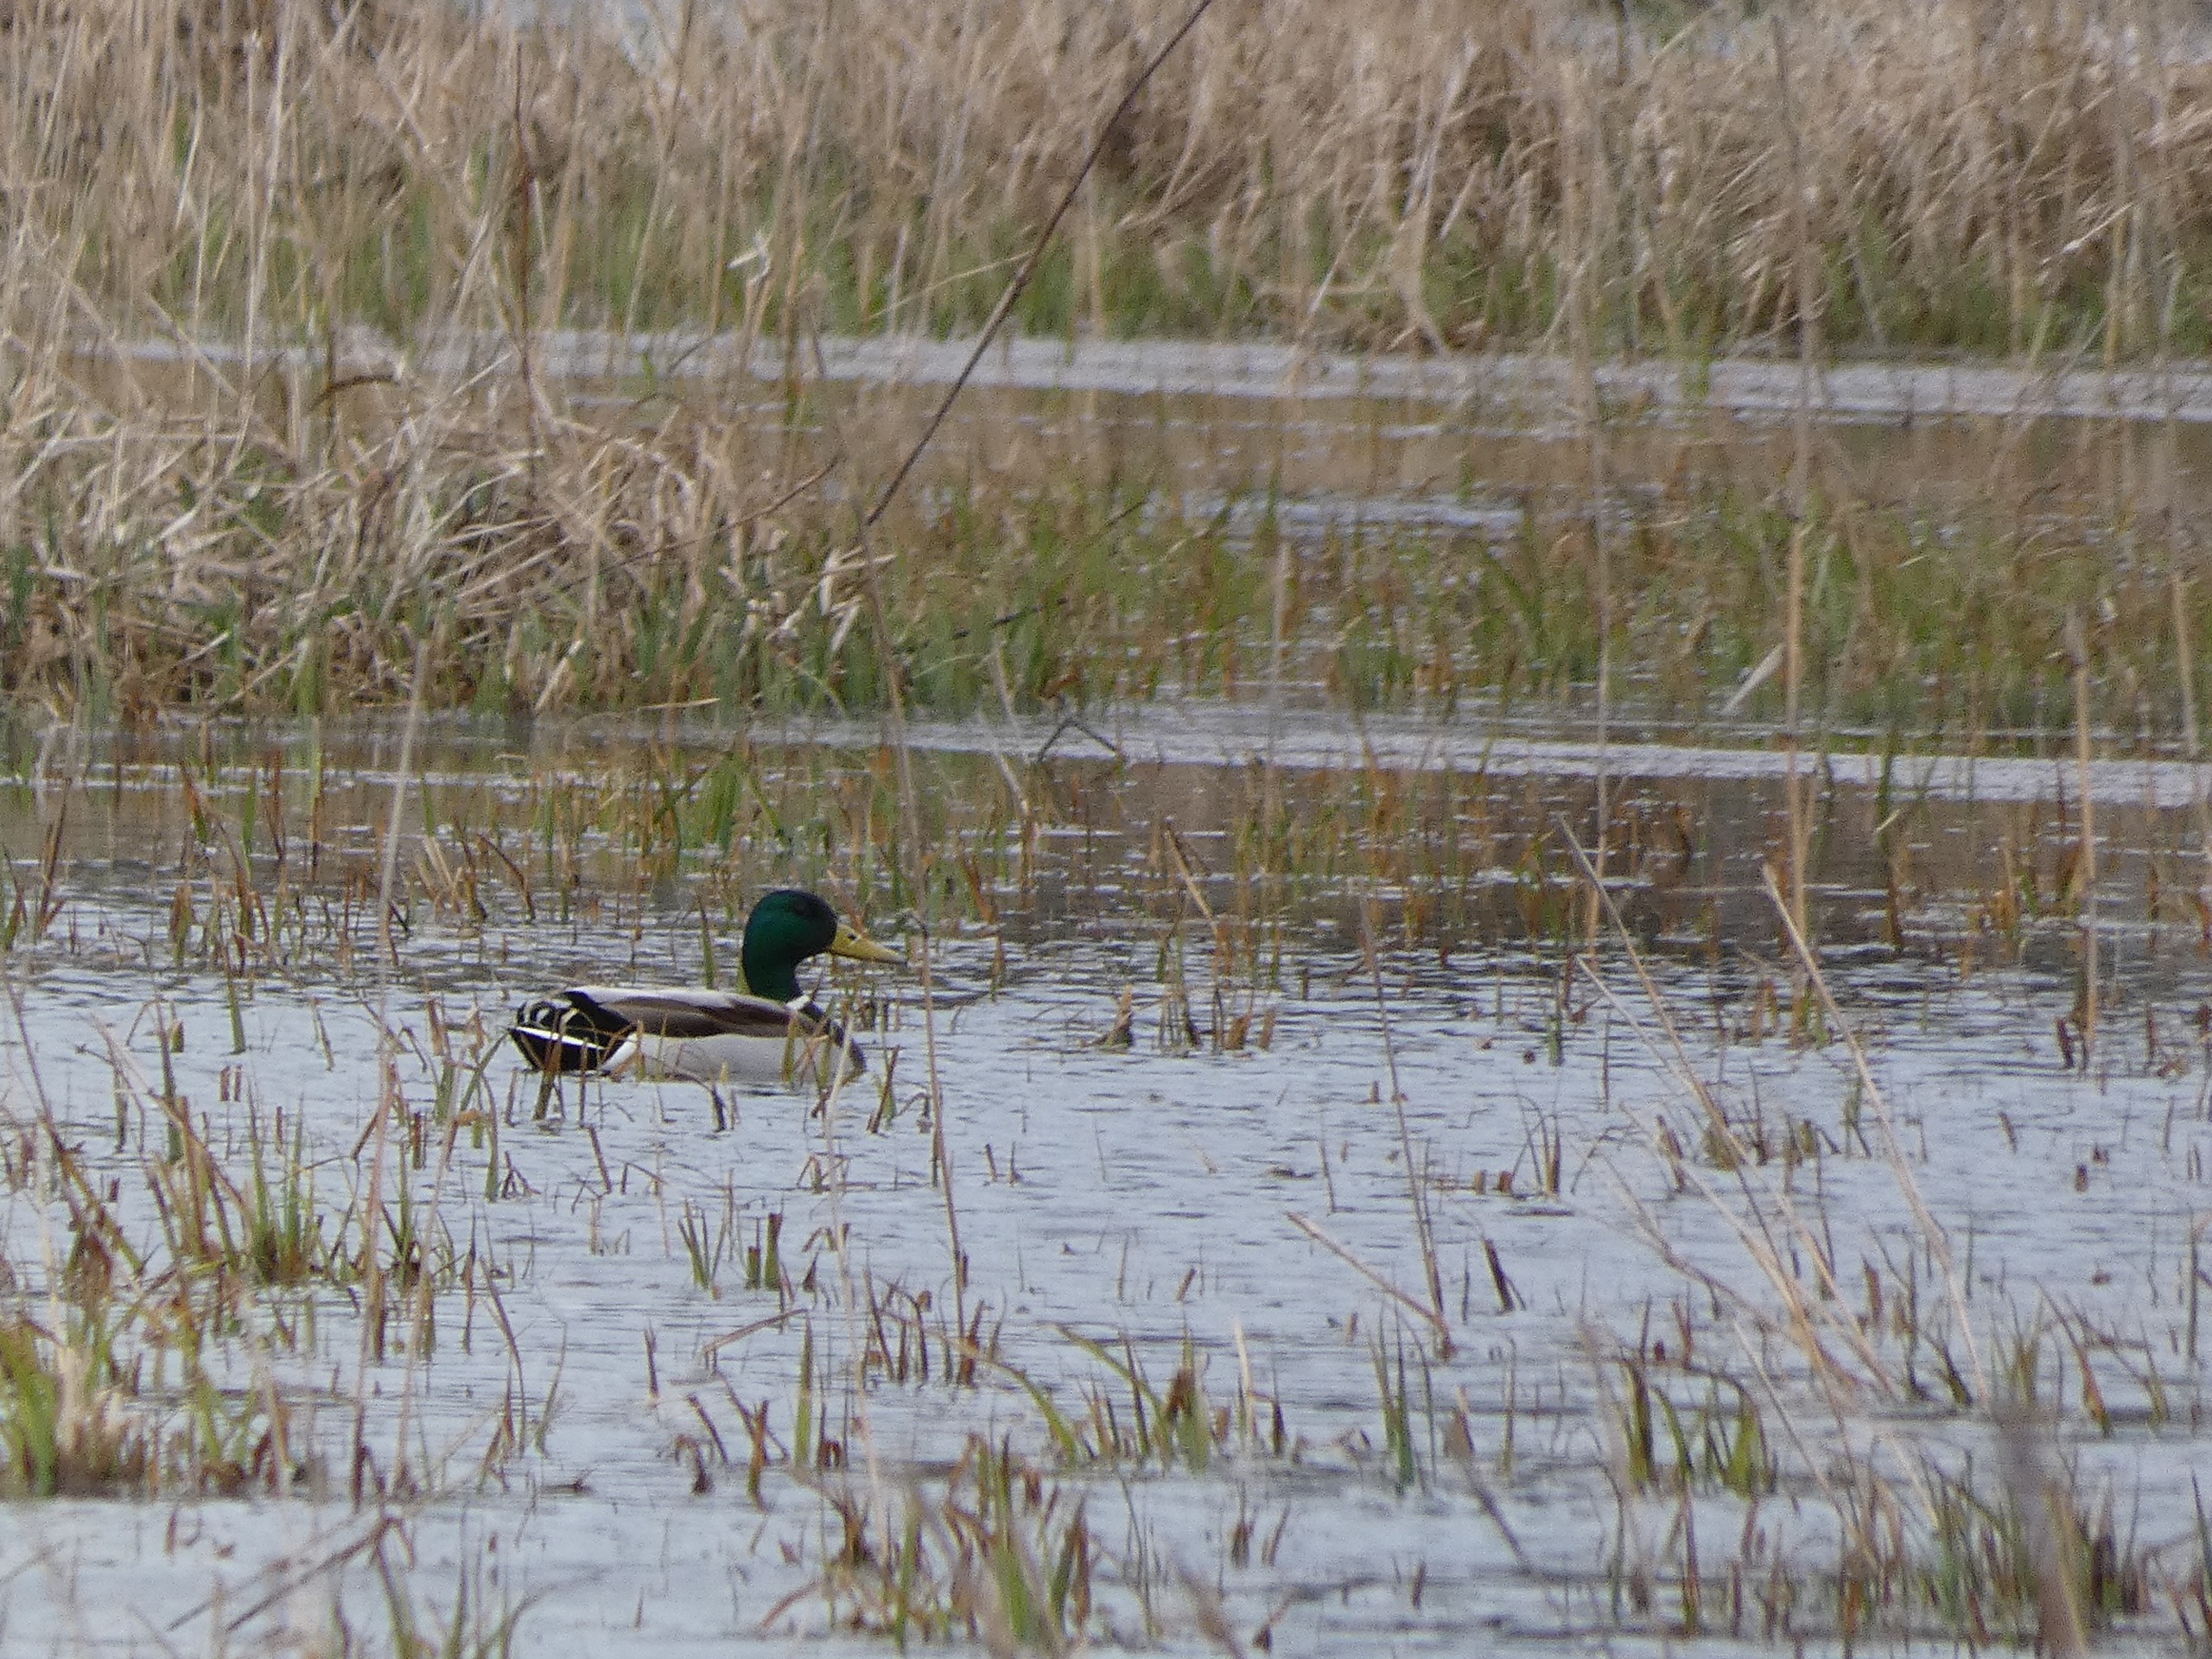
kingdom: Animalia
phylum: Chordata
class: Aves
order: Anseriformes
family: Anatidae
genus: Anas
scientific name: Anas platyrhynchos
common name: Gråand
